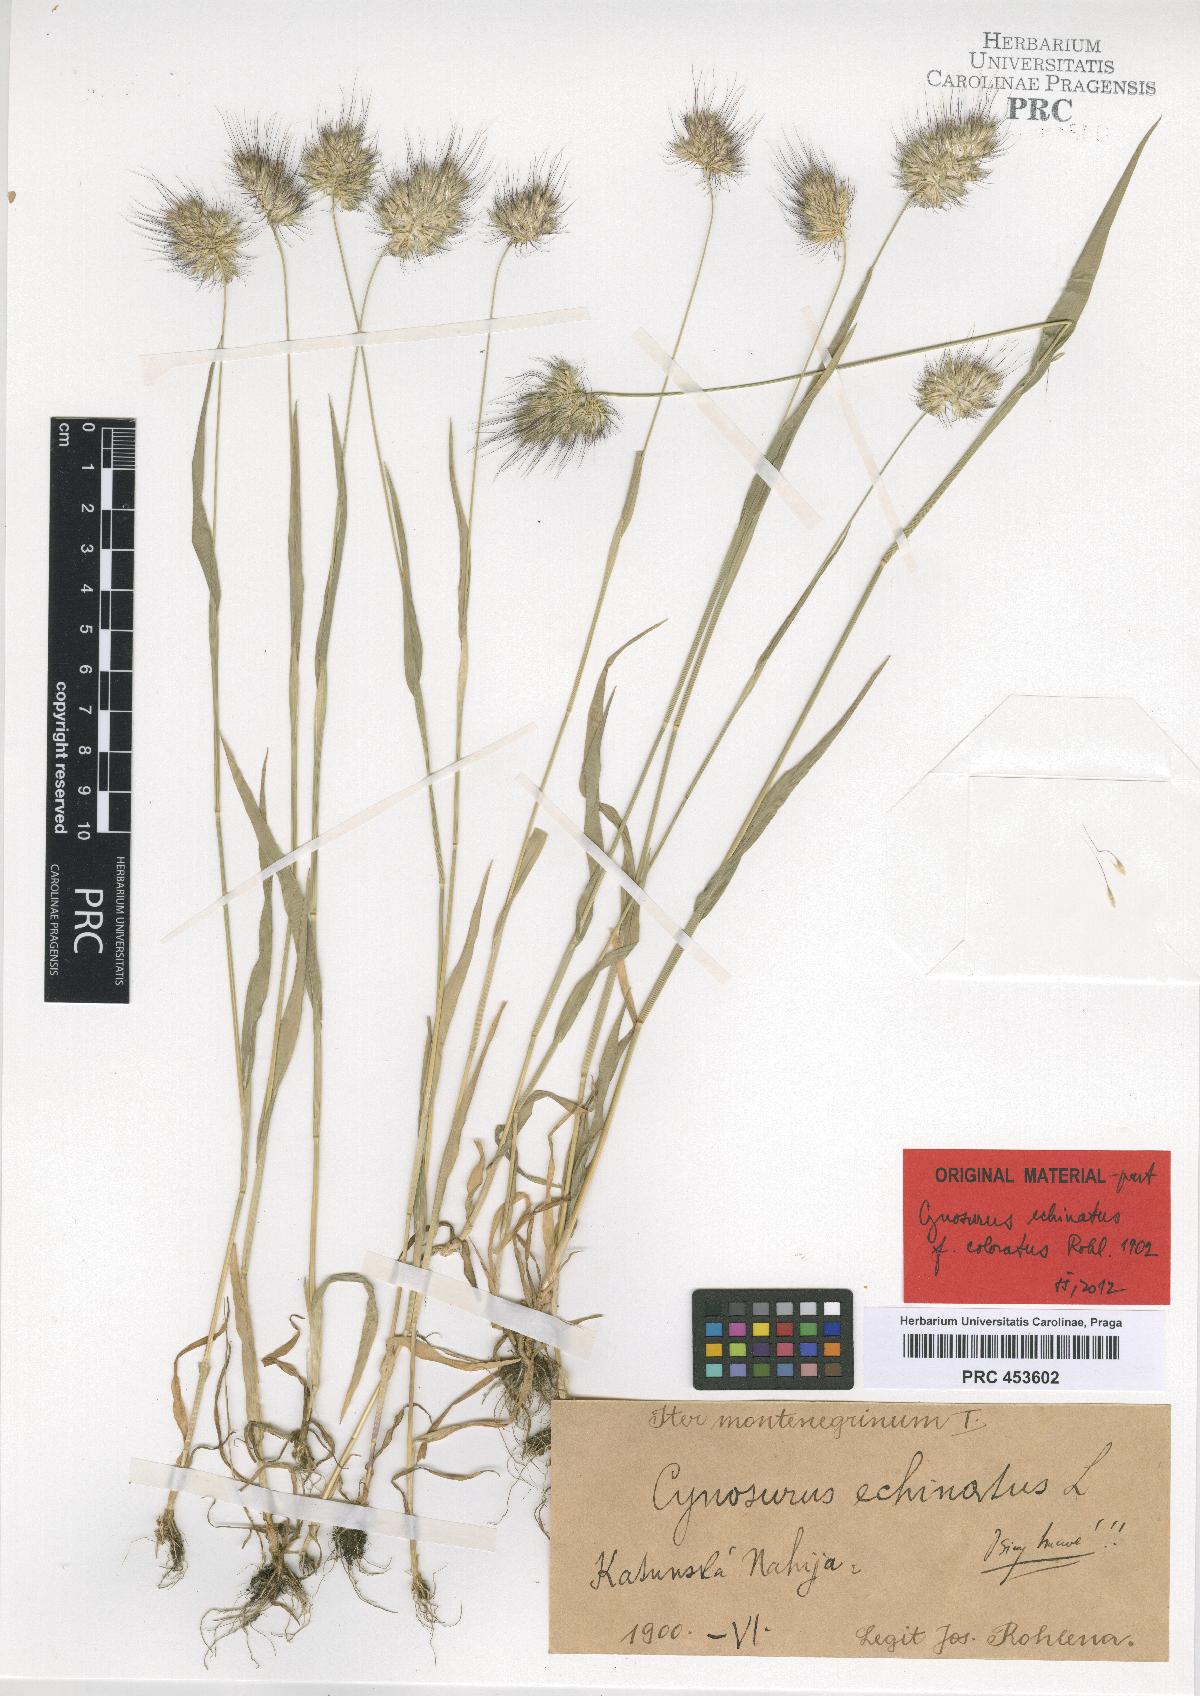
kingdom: Plantae
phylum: Tracheophyta
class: Liliopsida
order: Poales
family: Poaceae
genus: Cynosurus
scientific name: Cynosurus echinatus
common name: Rough dog's-tail
